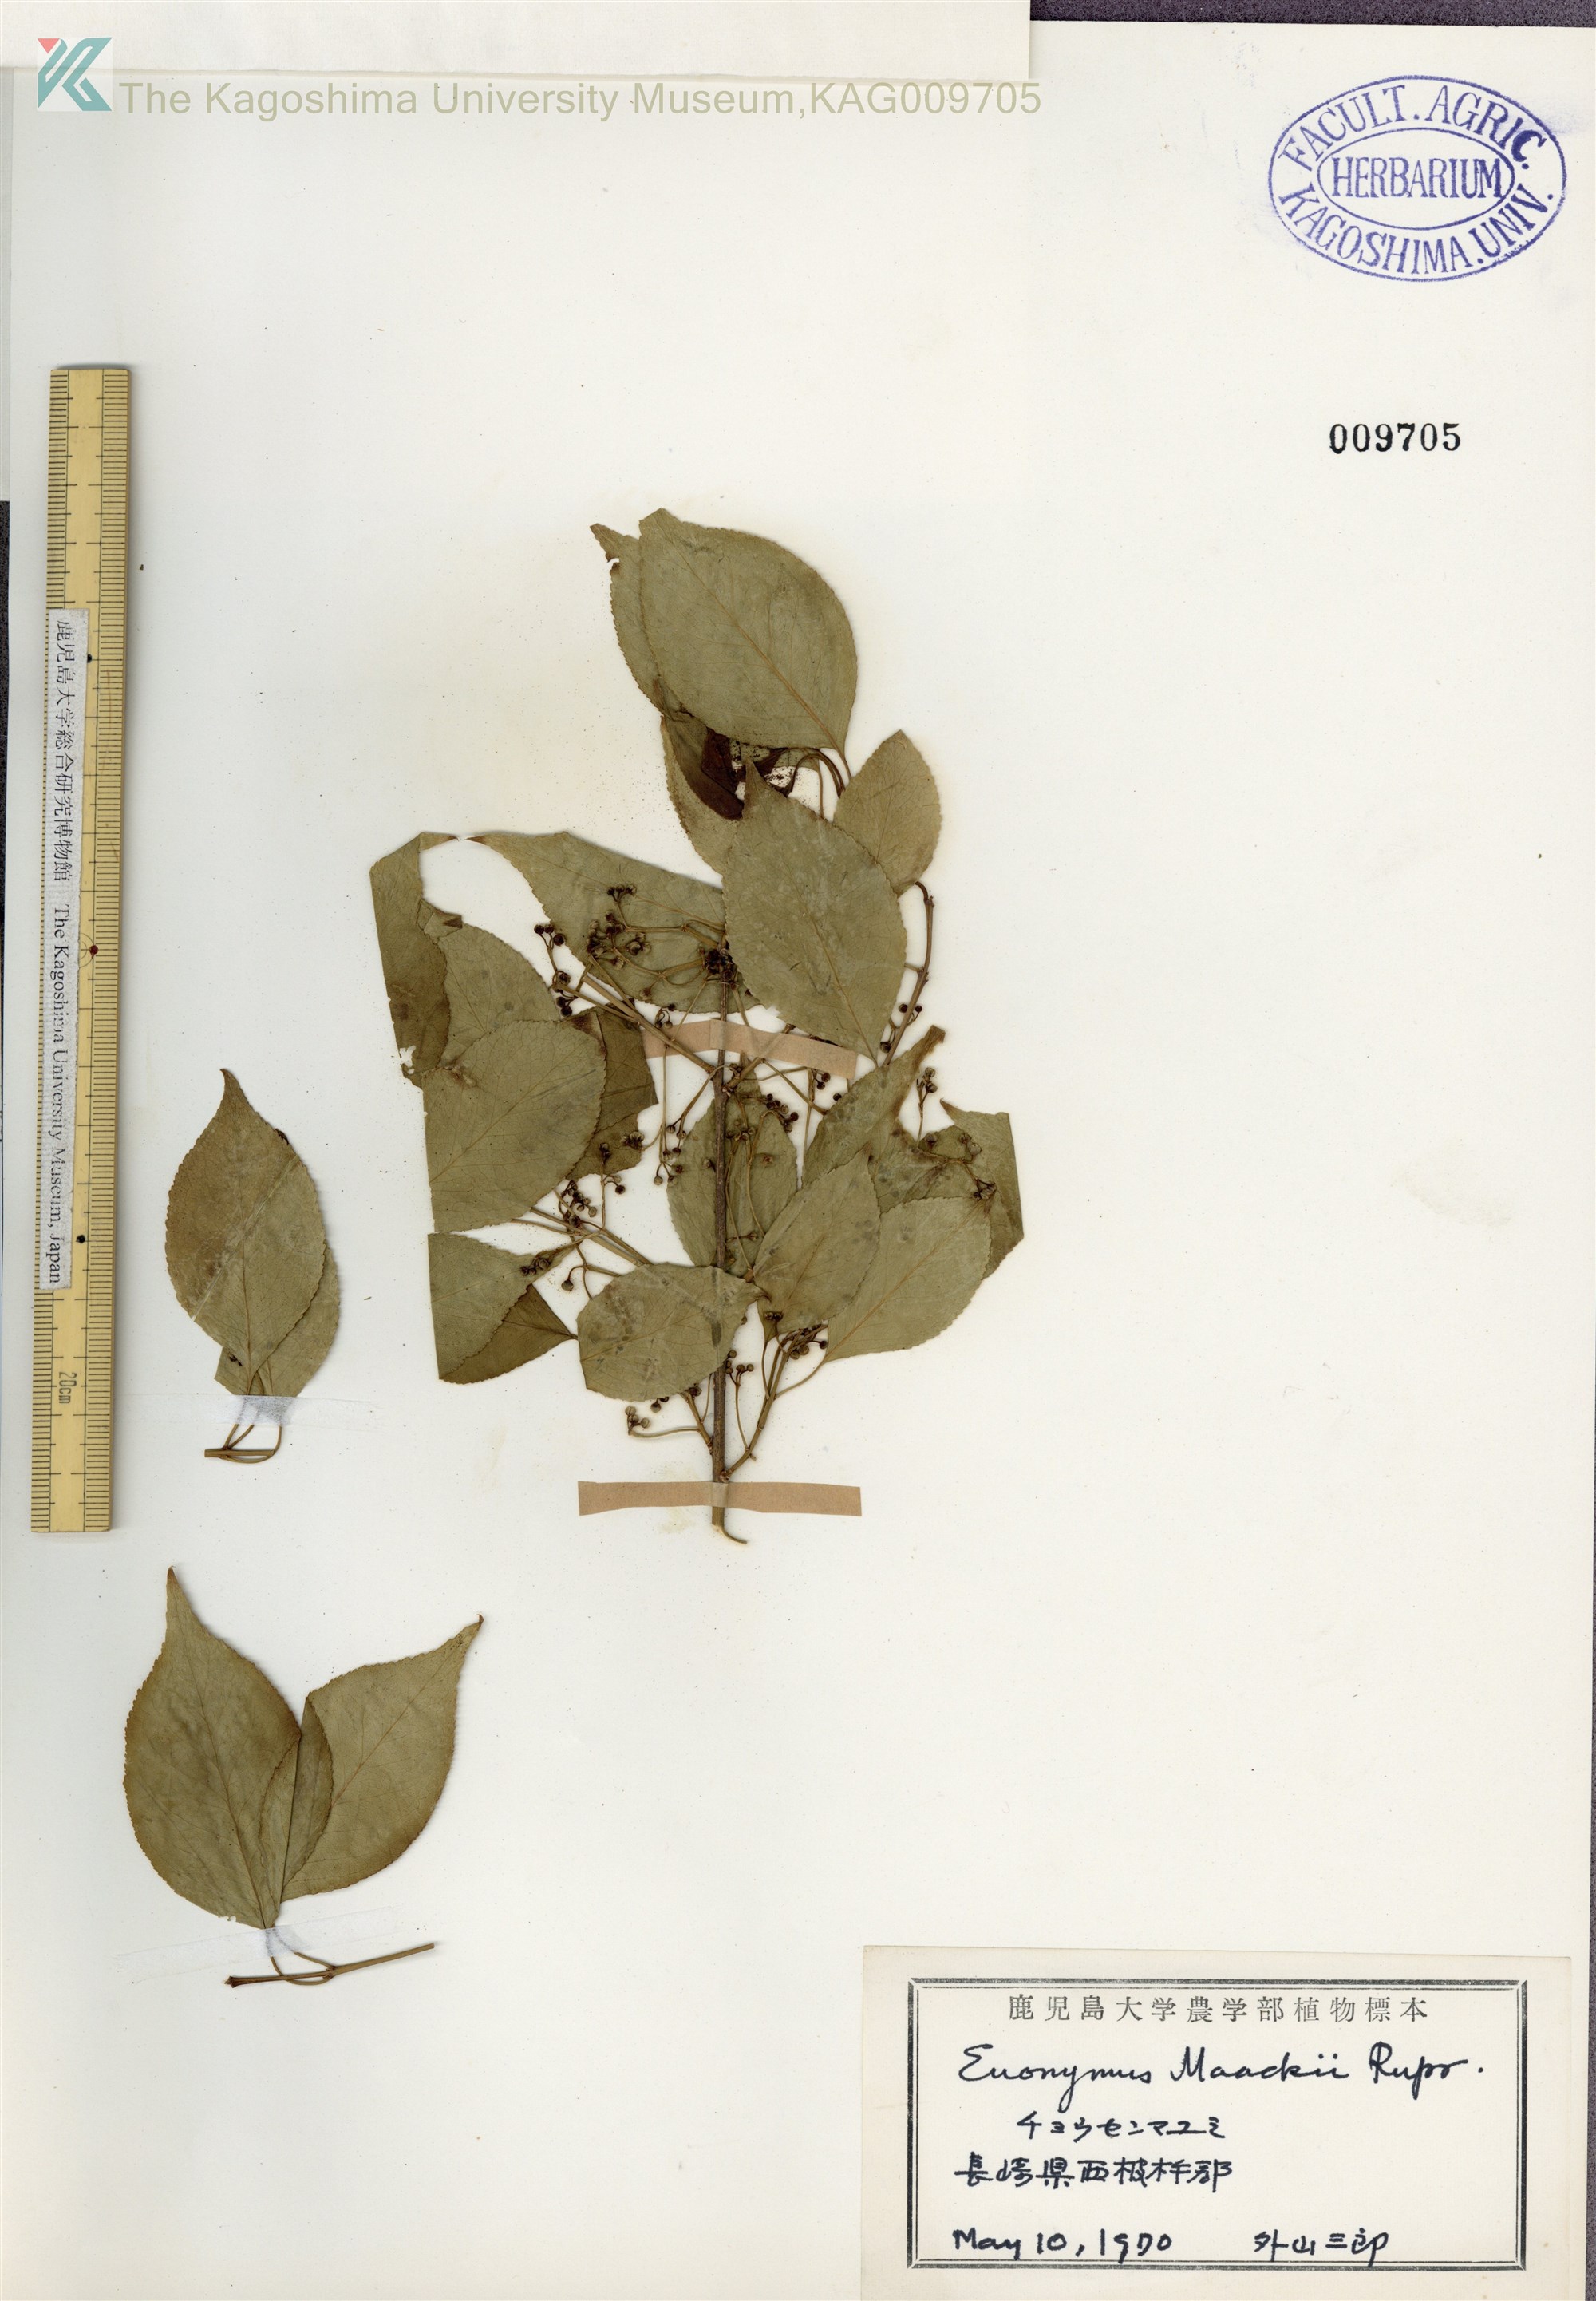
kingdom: Plantae
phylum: Tracheophyta
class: Magnoliopsida
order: Celastrales
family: Celastraceae
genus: Euonymus
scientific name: Euonymus maackii
